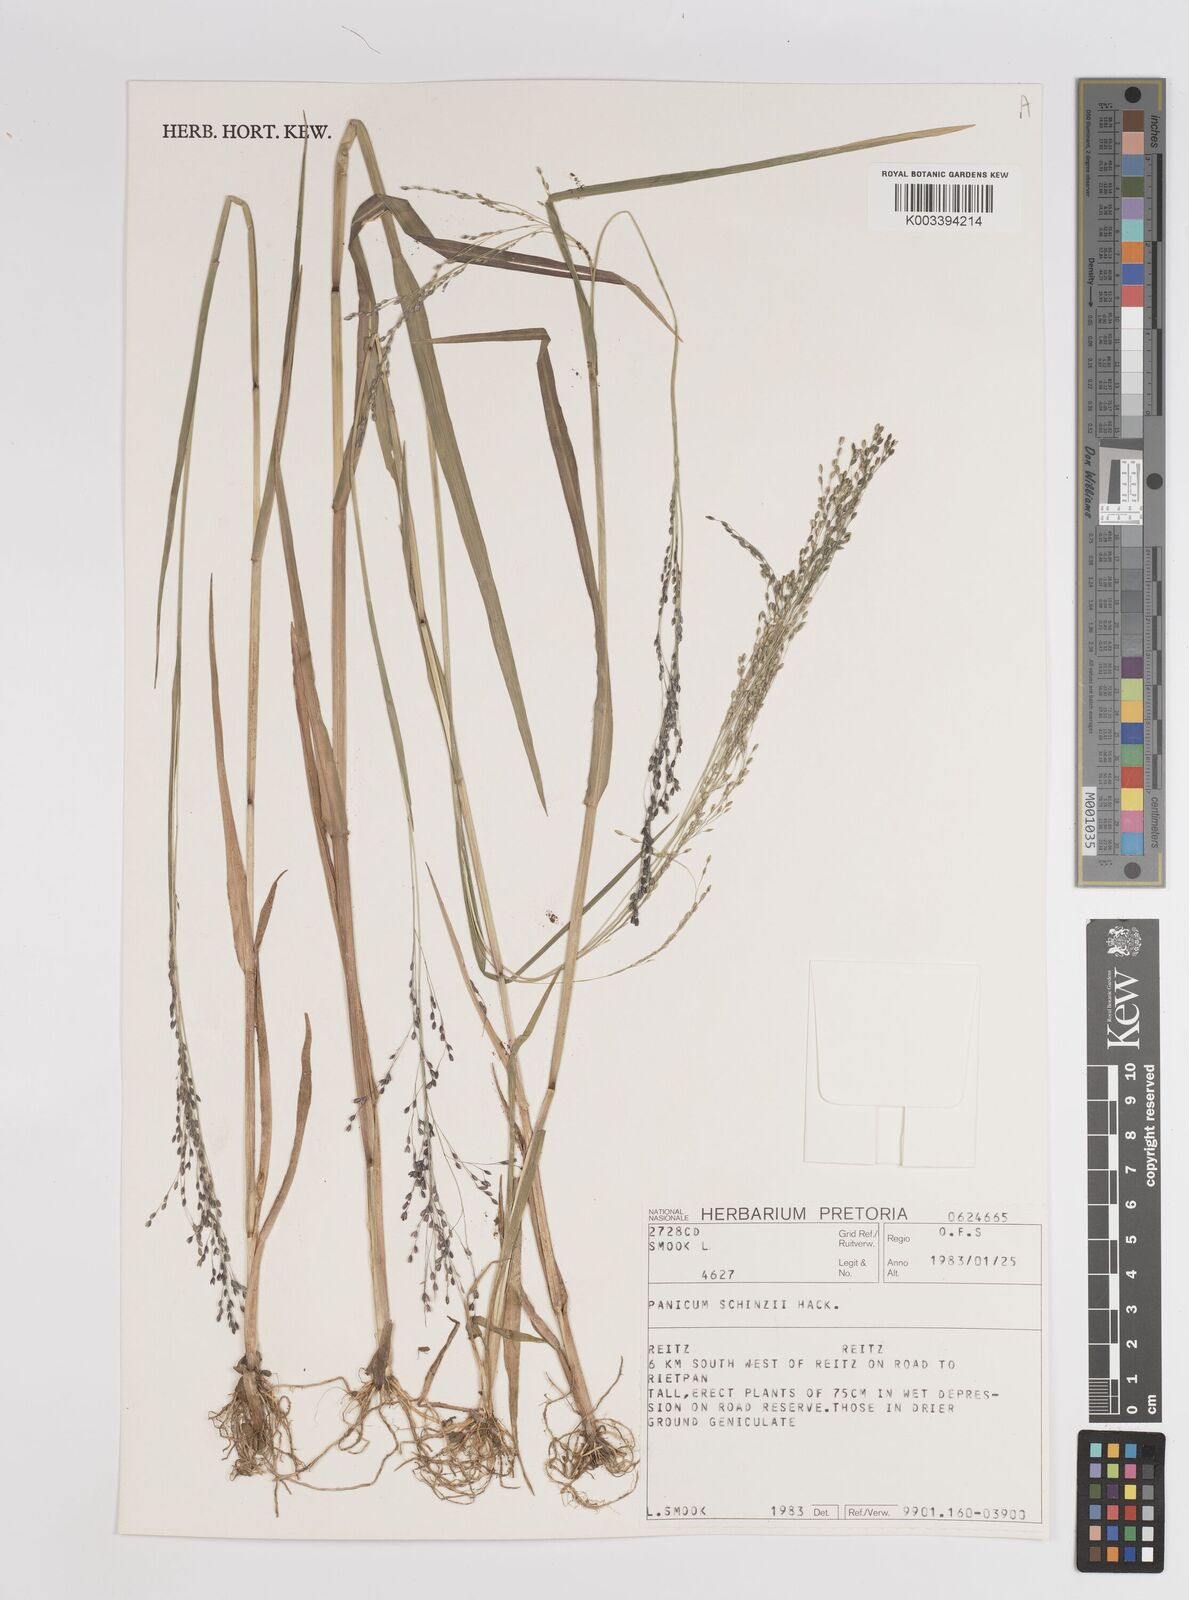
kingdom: Plantae
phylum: Tracheophyta
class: Liliopsida
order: Poales
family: Poaceae
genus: Panicum
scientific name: Panicum schinzii
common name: Sweet grass
